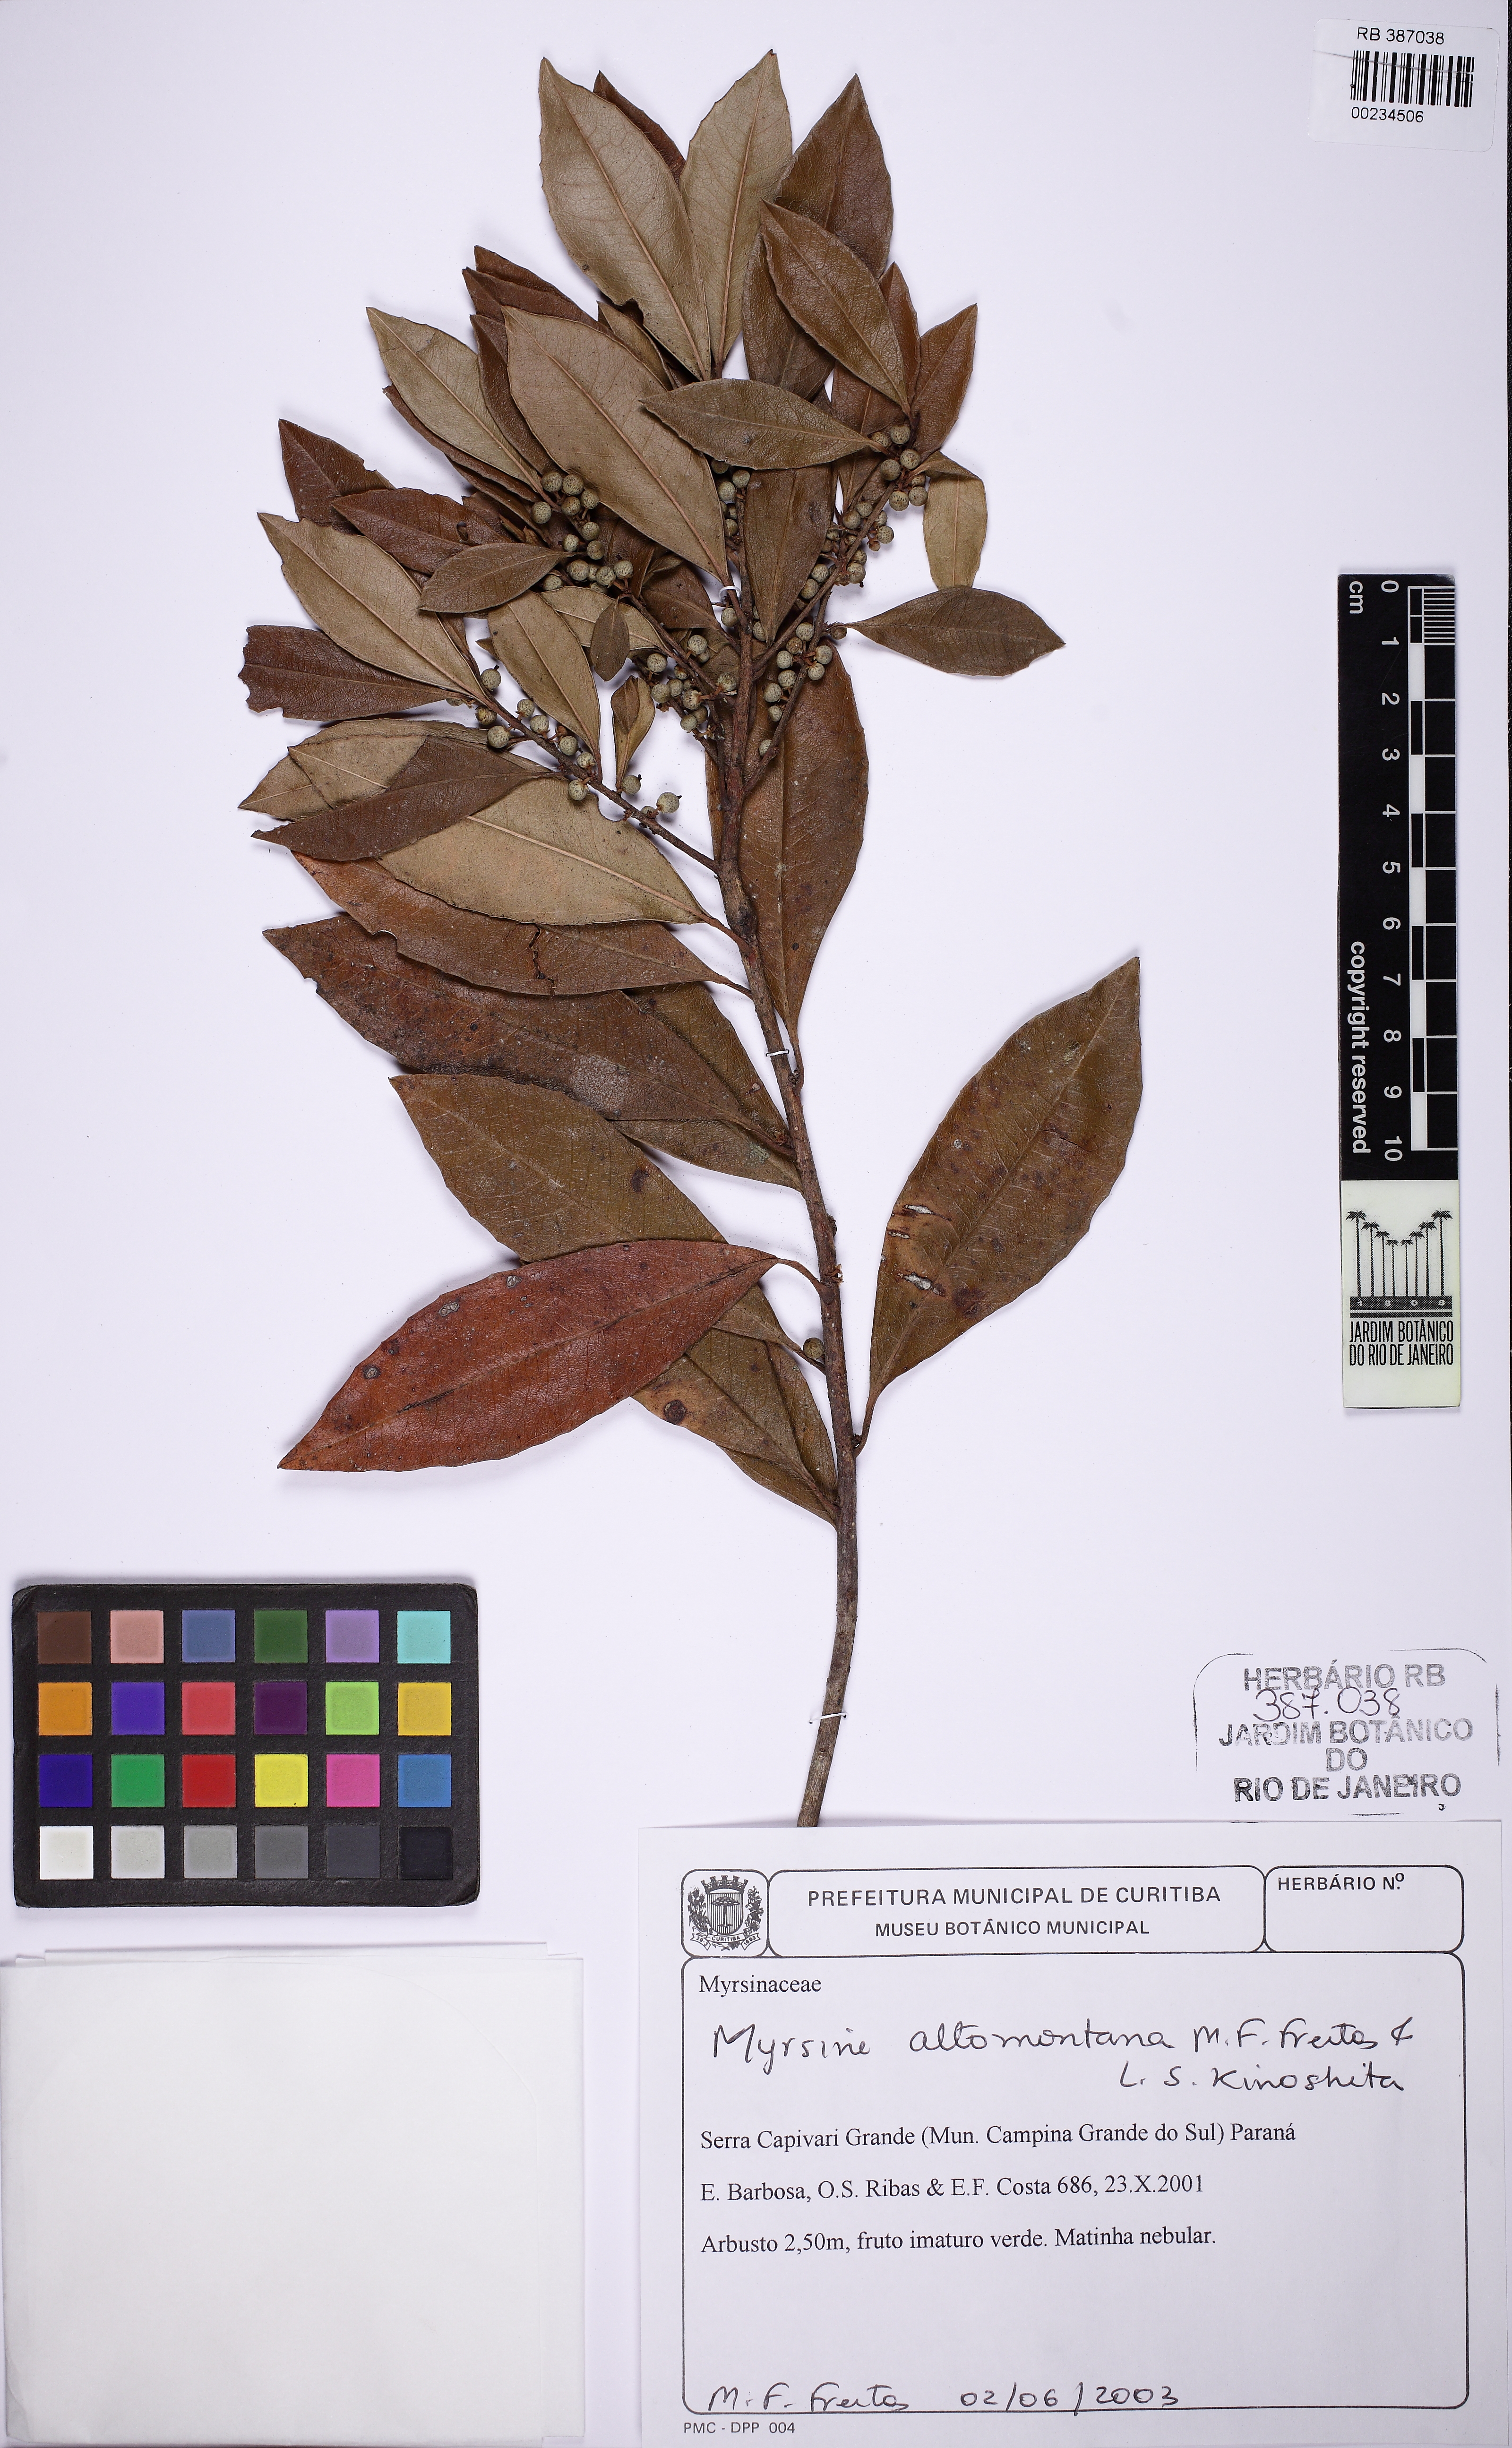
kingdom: Plantae
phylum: Tracheophyta
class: Magnoliopsida
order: Ericales
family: Primulaceae
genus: Myrsine
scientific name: Myrsine altomontana
